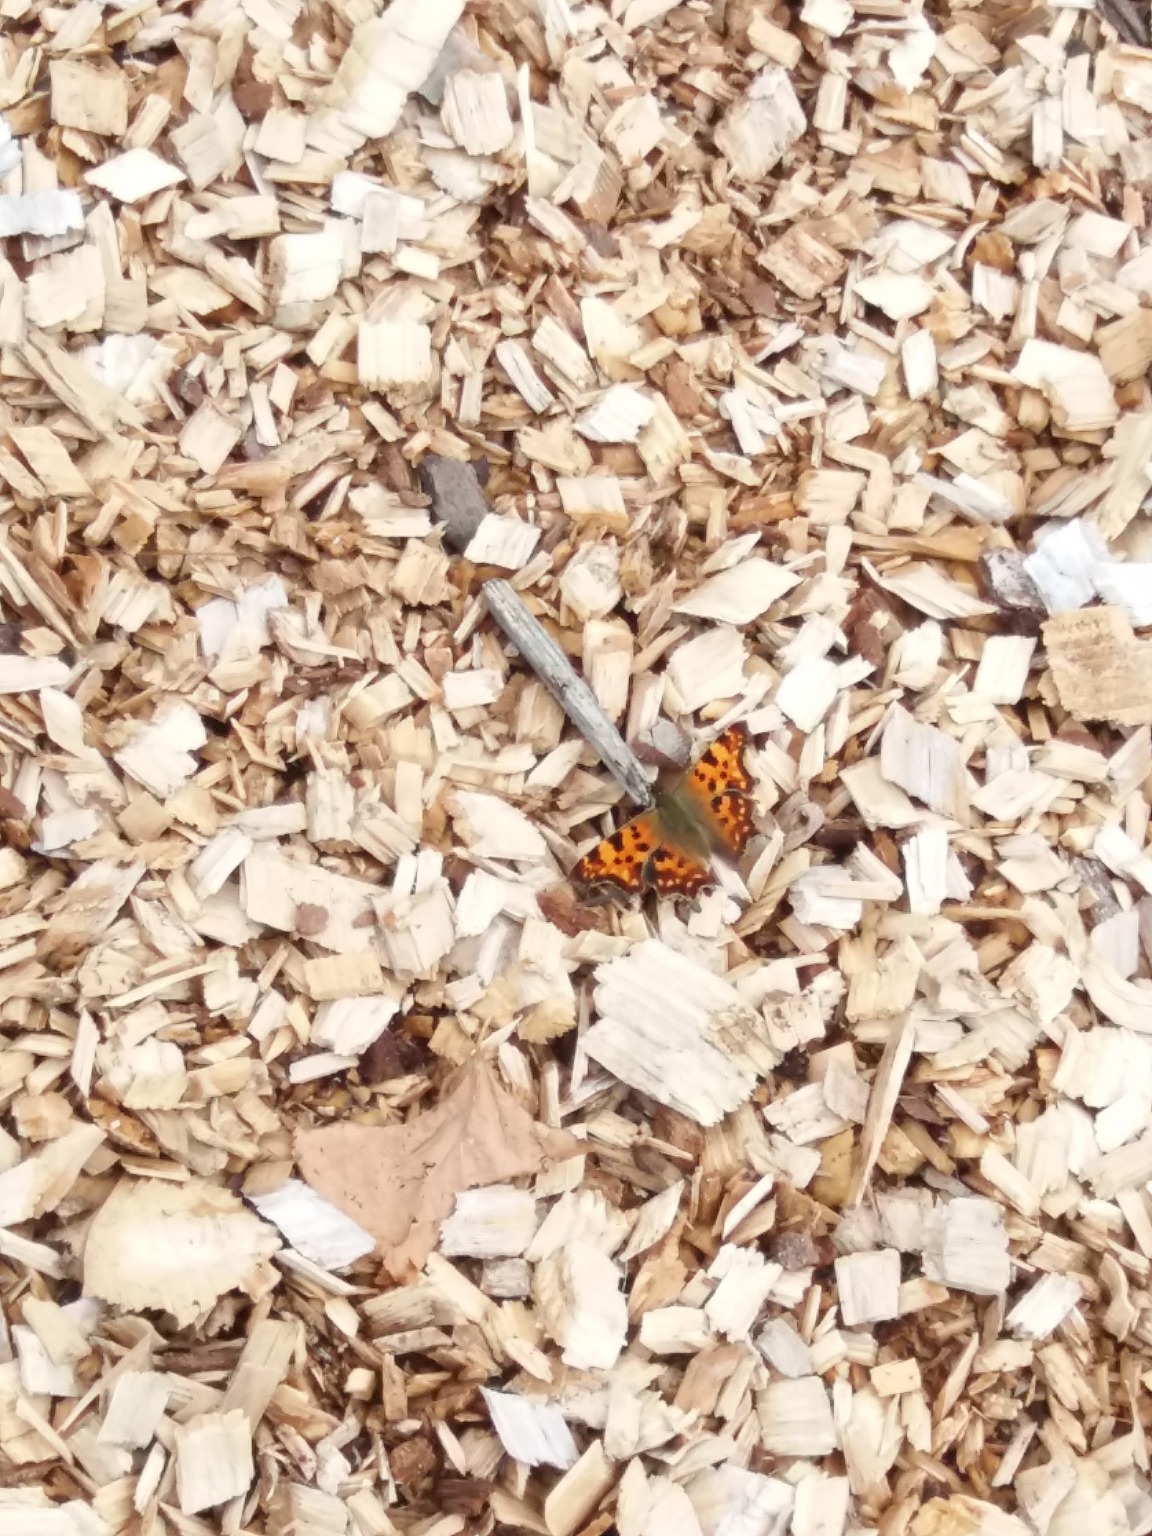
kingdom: Animalia
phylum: Arthropoda
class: Insecta
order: Lepidoptera
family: Nymphalidae
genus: Polygonia
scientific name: Polygonia c-album
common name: Det hvide C
